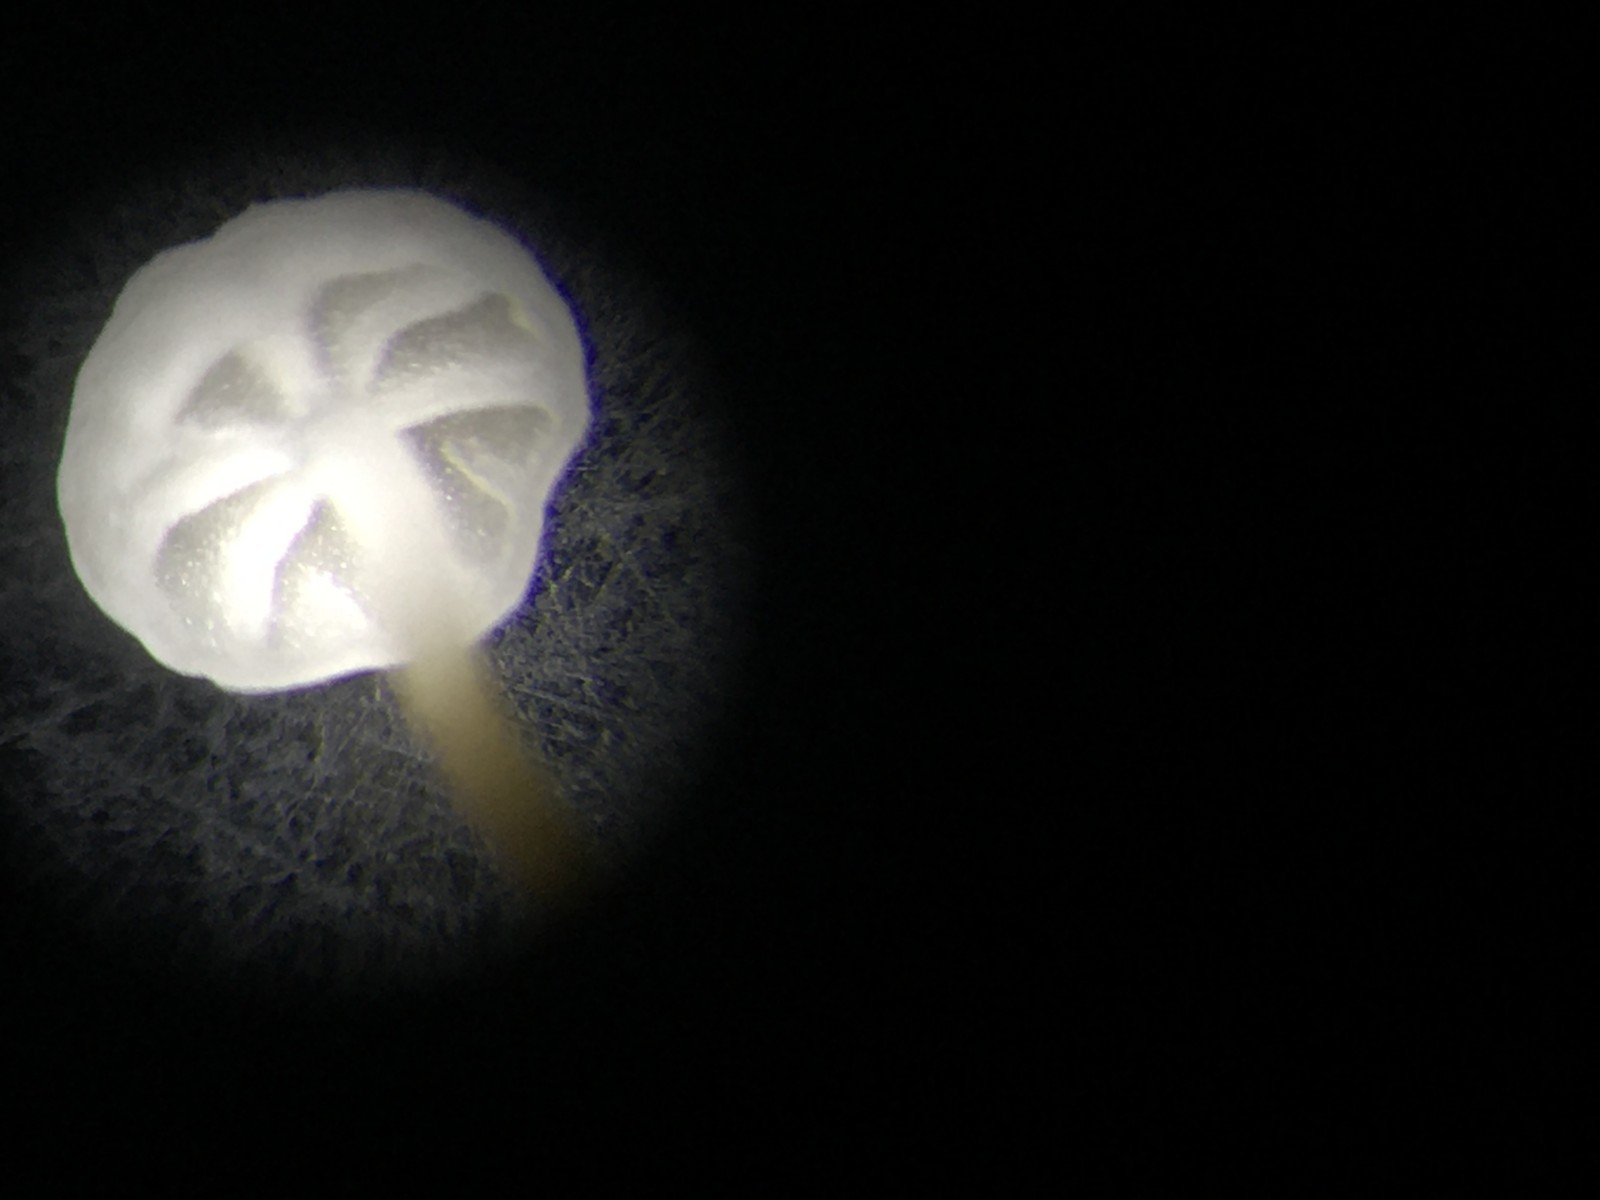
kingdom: Fungi
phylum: Basidiomycota
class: Agaricomycetes
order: Agaricales
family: Physalacriaceae
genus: Rhizomarasmius
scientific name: Rhizomarasmius setosus
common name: bøgeblads-bruskhat
